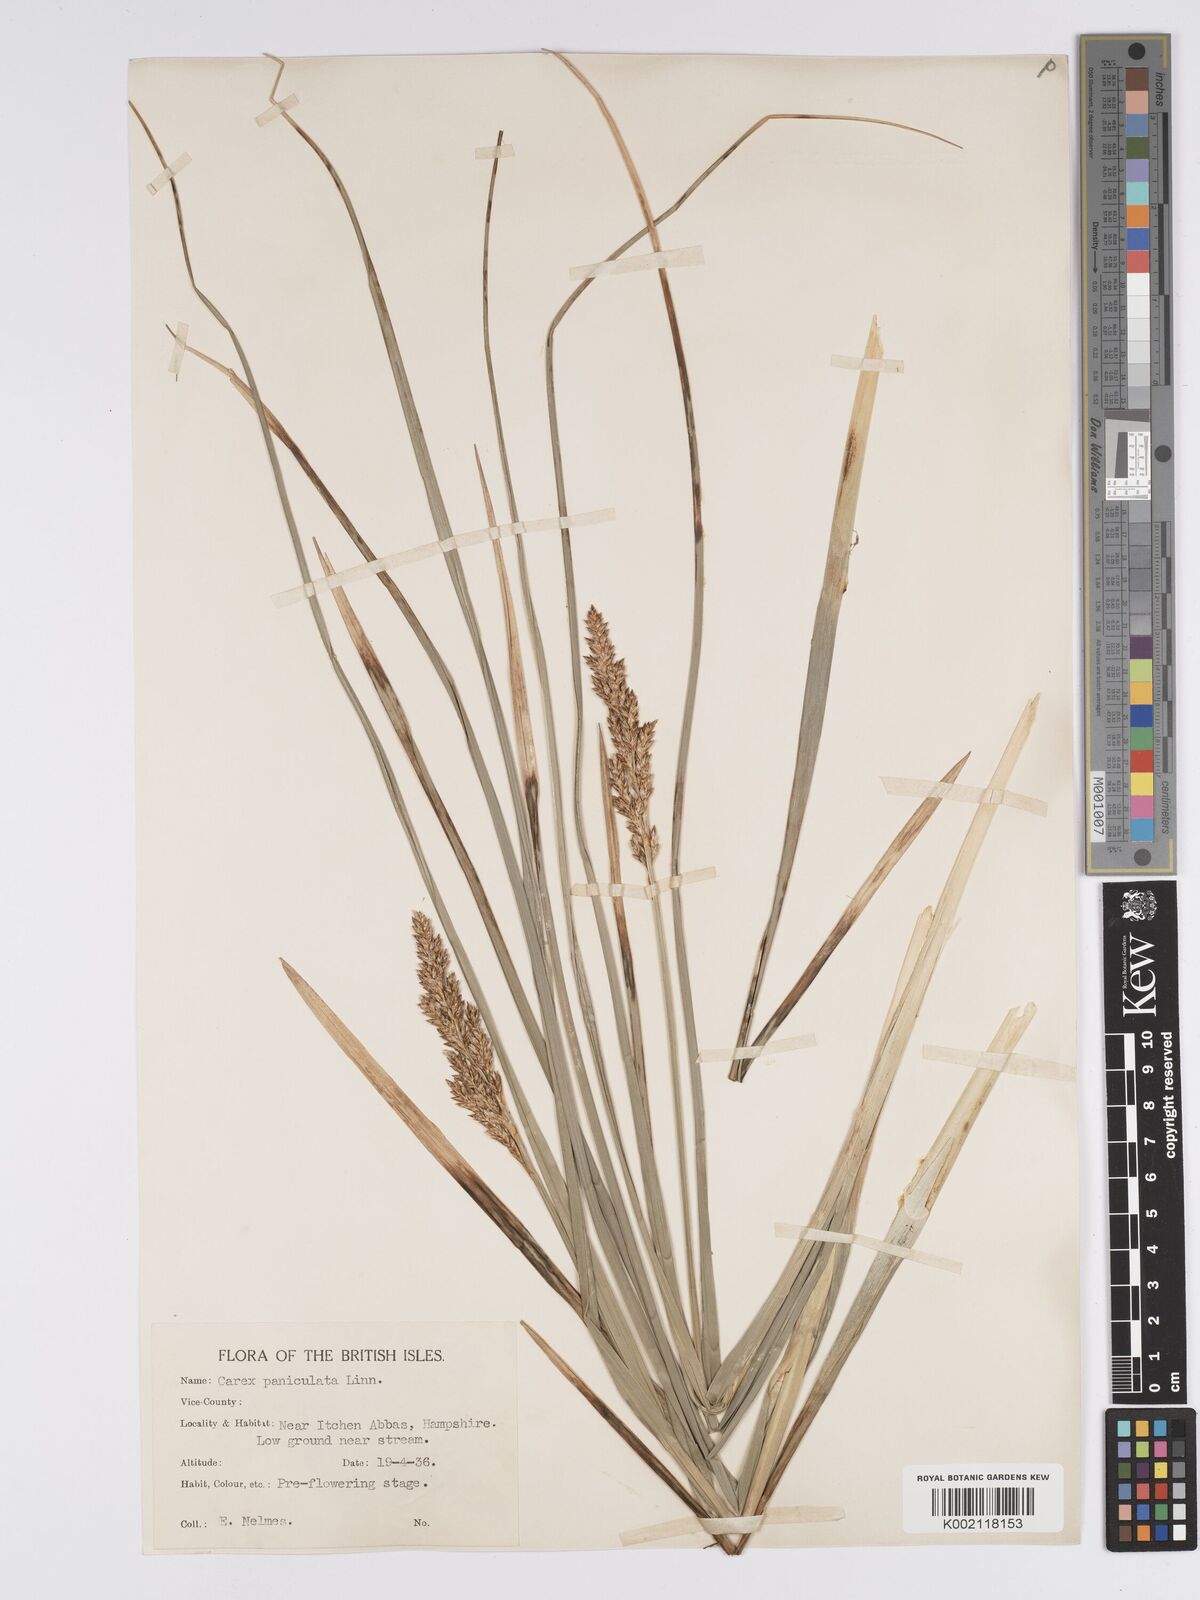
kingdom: Plantae
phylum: Tracheophyta
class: Liliopsida
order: Poales
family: Cyperaceae
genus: Carex
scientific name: Carex paniculata
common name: Greater tussock-sedge
